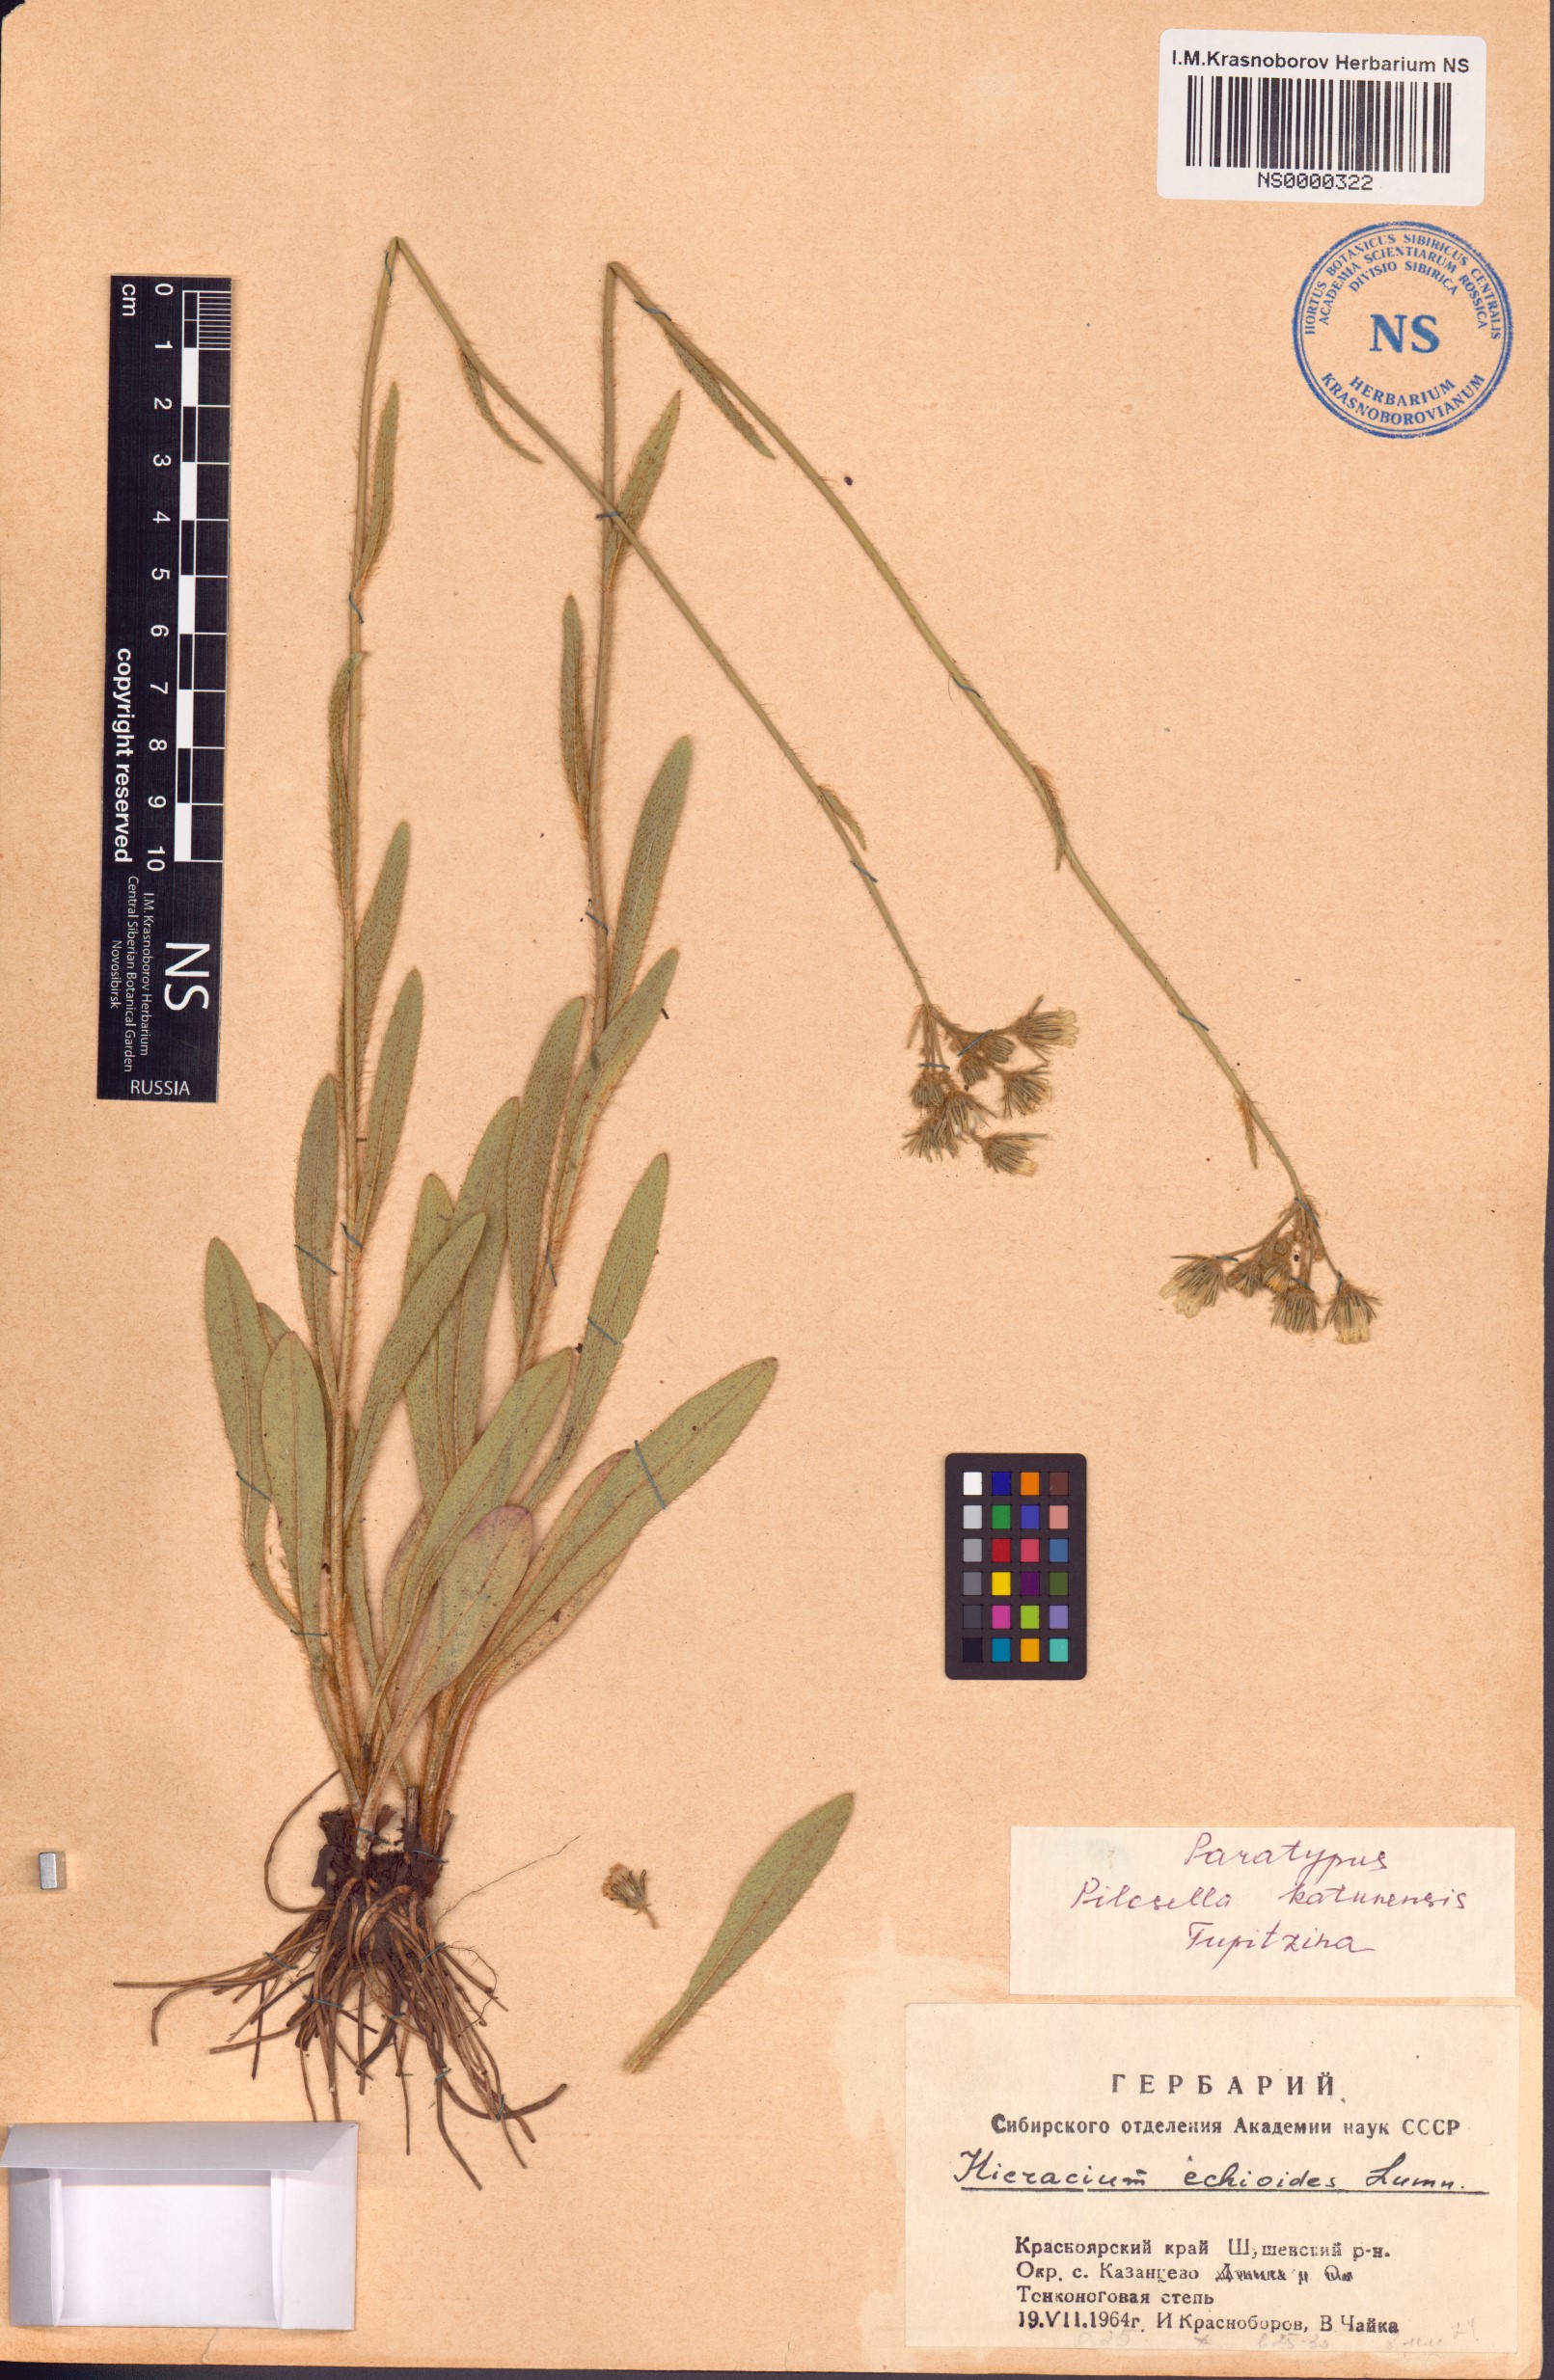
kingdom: Plantae
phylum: Tracheophyta
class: Magnoliopsida
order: Asterales
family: Asteraceae
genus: Pilosella
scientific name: Pilosella katunensis
